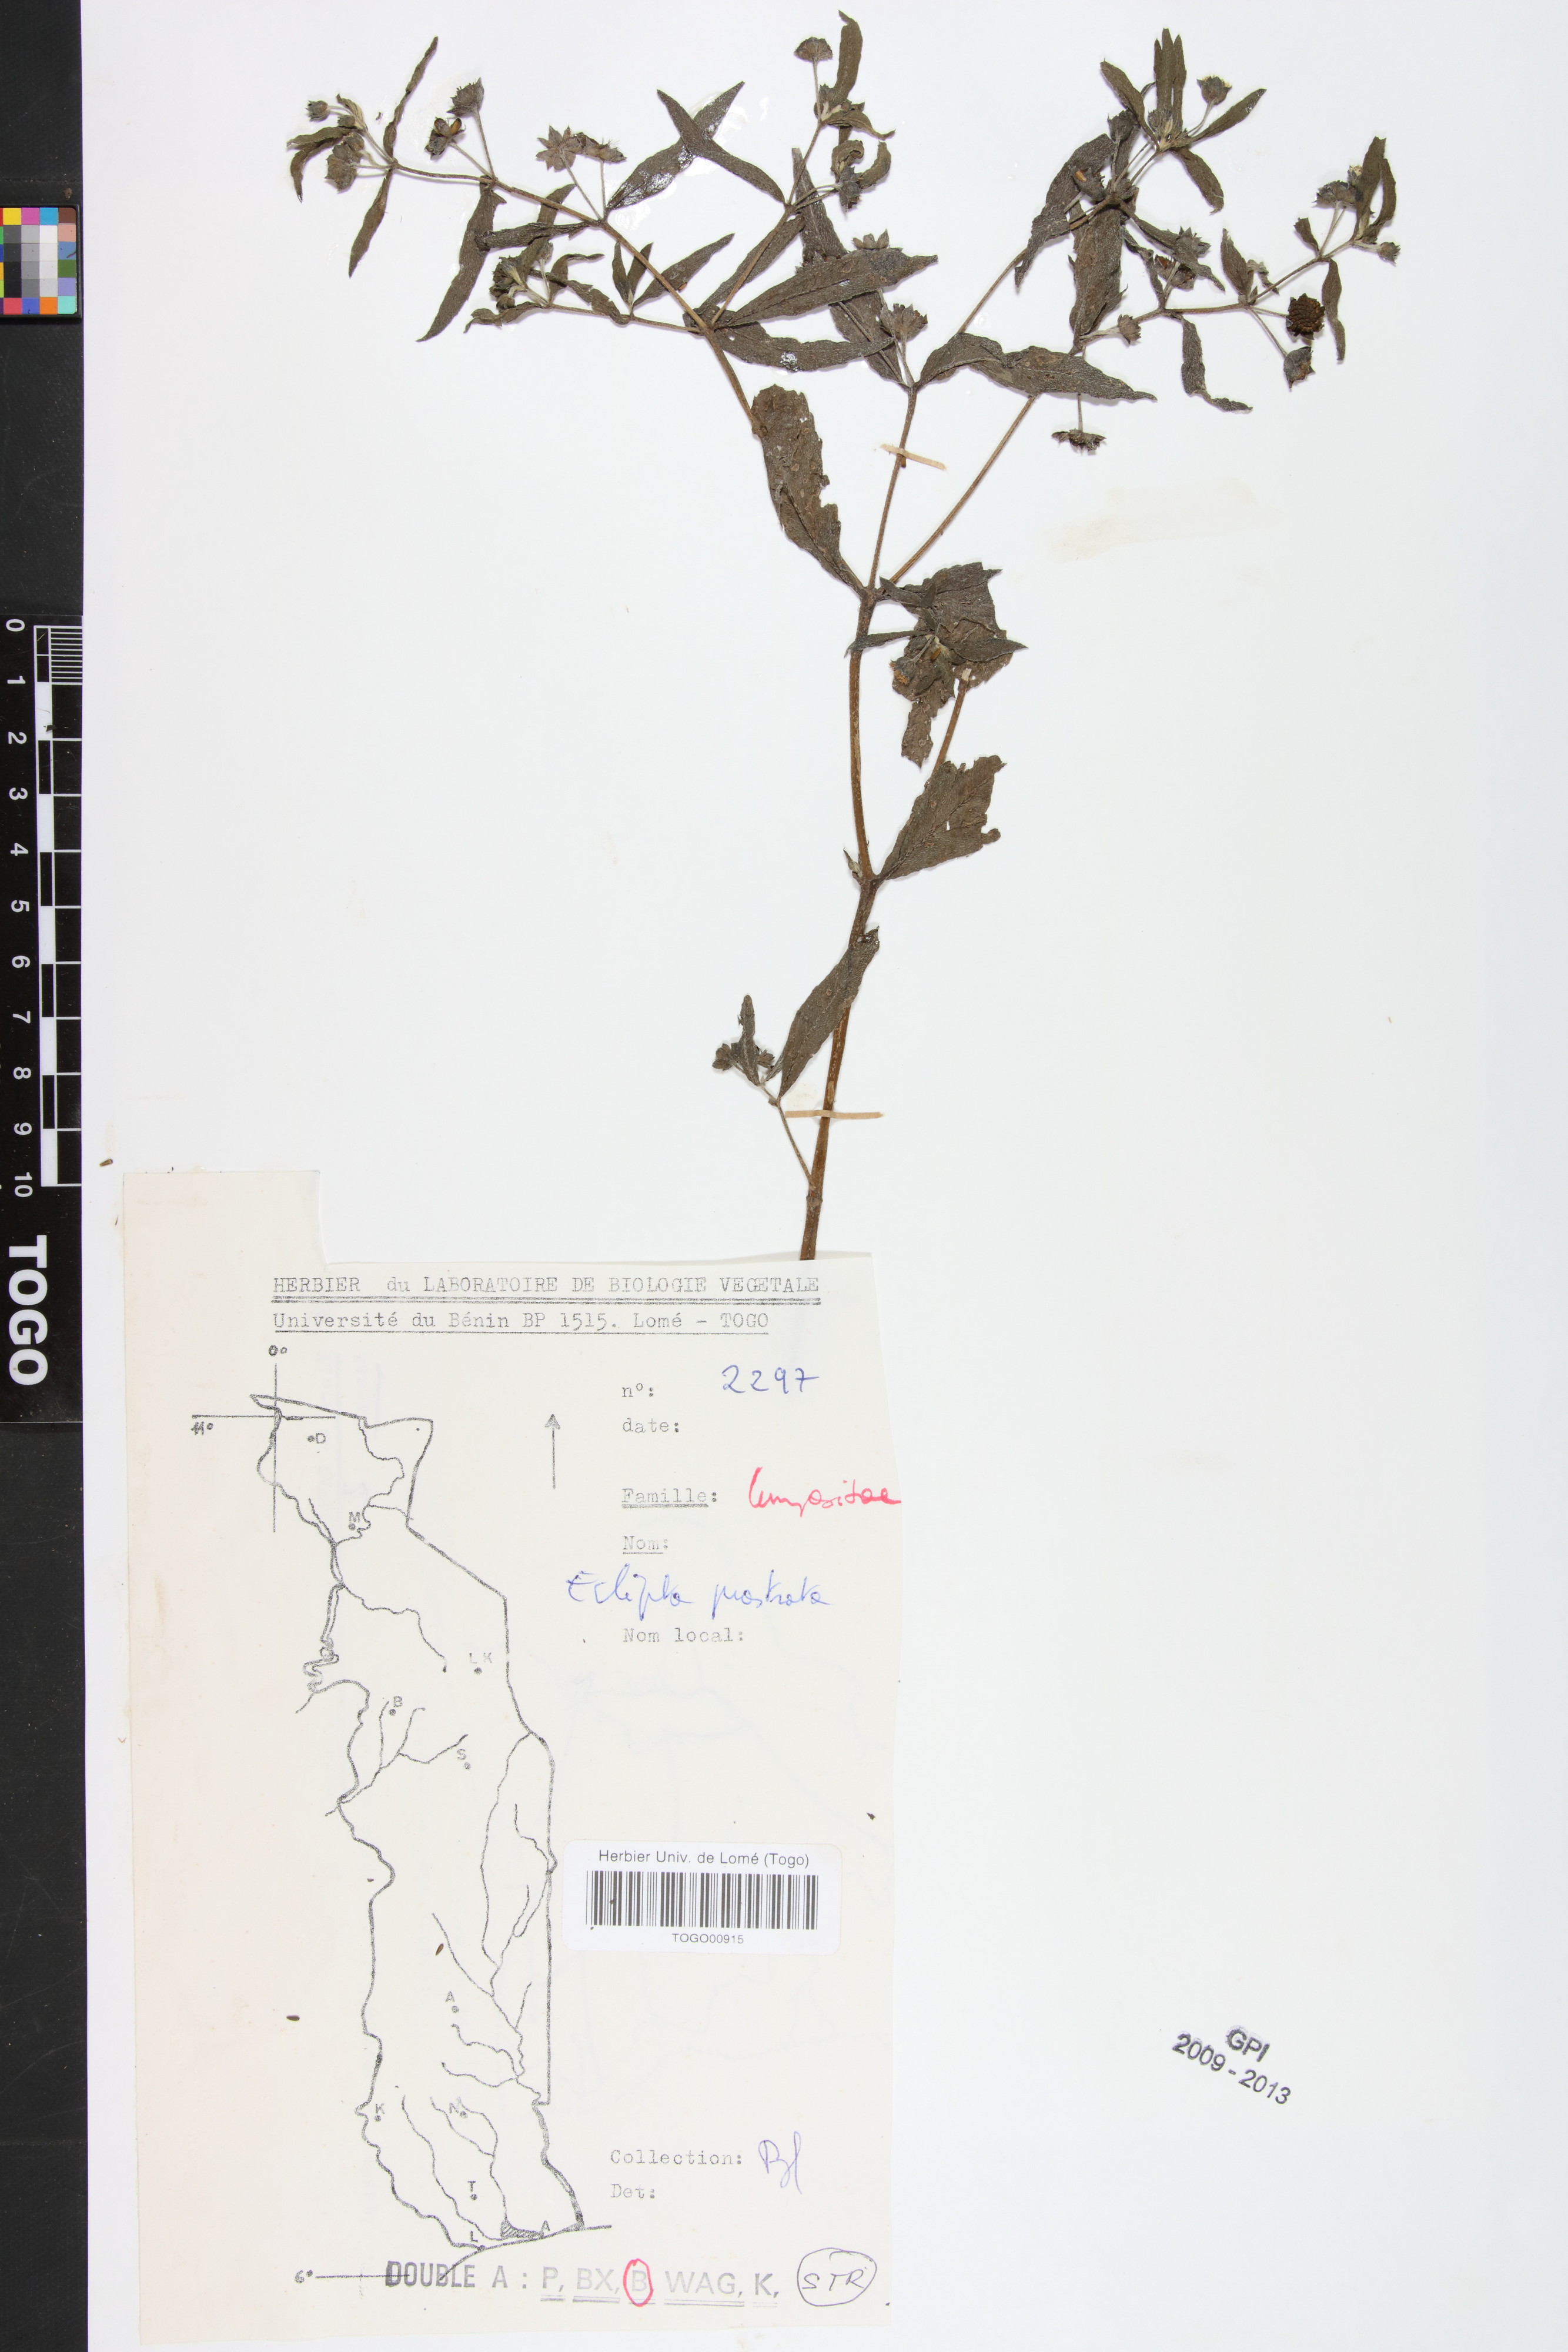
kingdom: Plantae
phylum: Tracheophyta
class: Magnoliopsida
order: Asterales
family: Asteraceae
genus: Eclipta
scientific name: Eclipta prostrata
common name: False daisy
